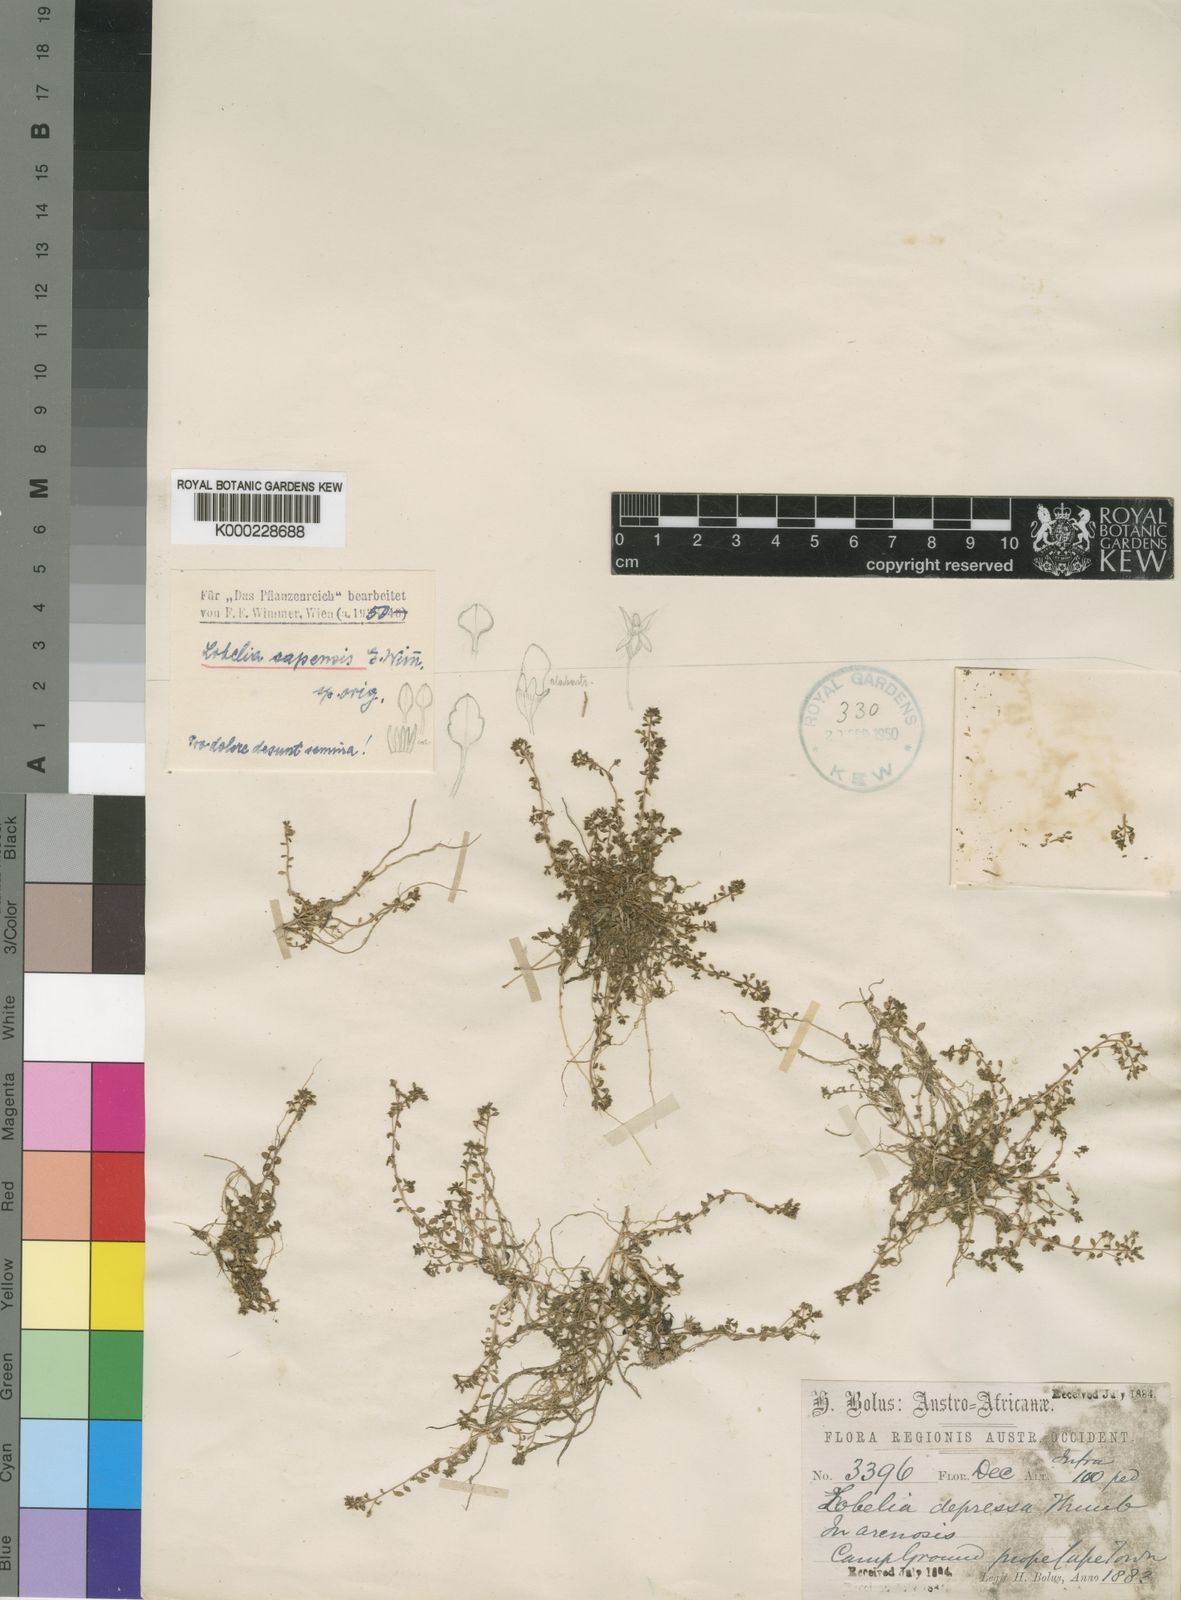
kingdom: Plantae
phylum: Tracheophyta
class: Magnoliopsida
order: Asterales
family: Campanulaceae
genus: Lobelia
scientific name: Lobelia limosa
